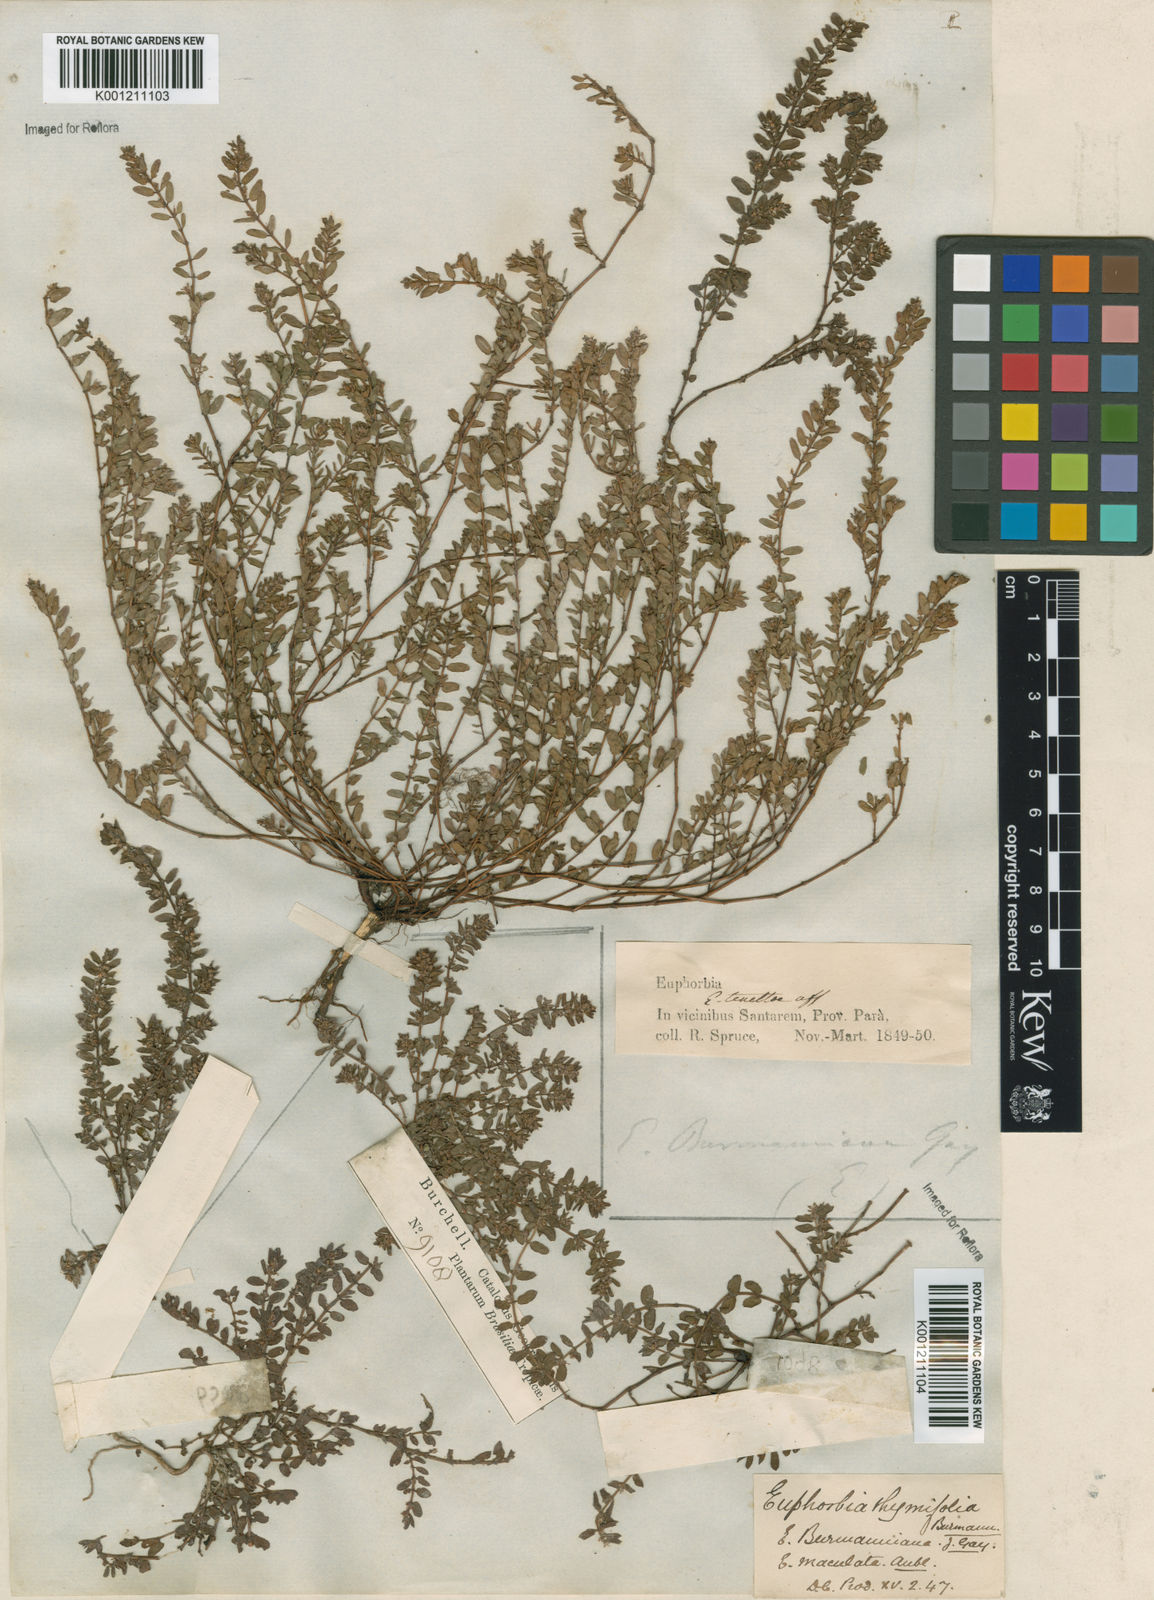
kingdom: Plantae
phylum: Tracheophyta
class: Magnoliopsida
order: Malpighiales
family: Euphorbiaceae
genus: Euphorbia
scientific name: Euphorbia thymifolia
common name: Gulf sandmat
